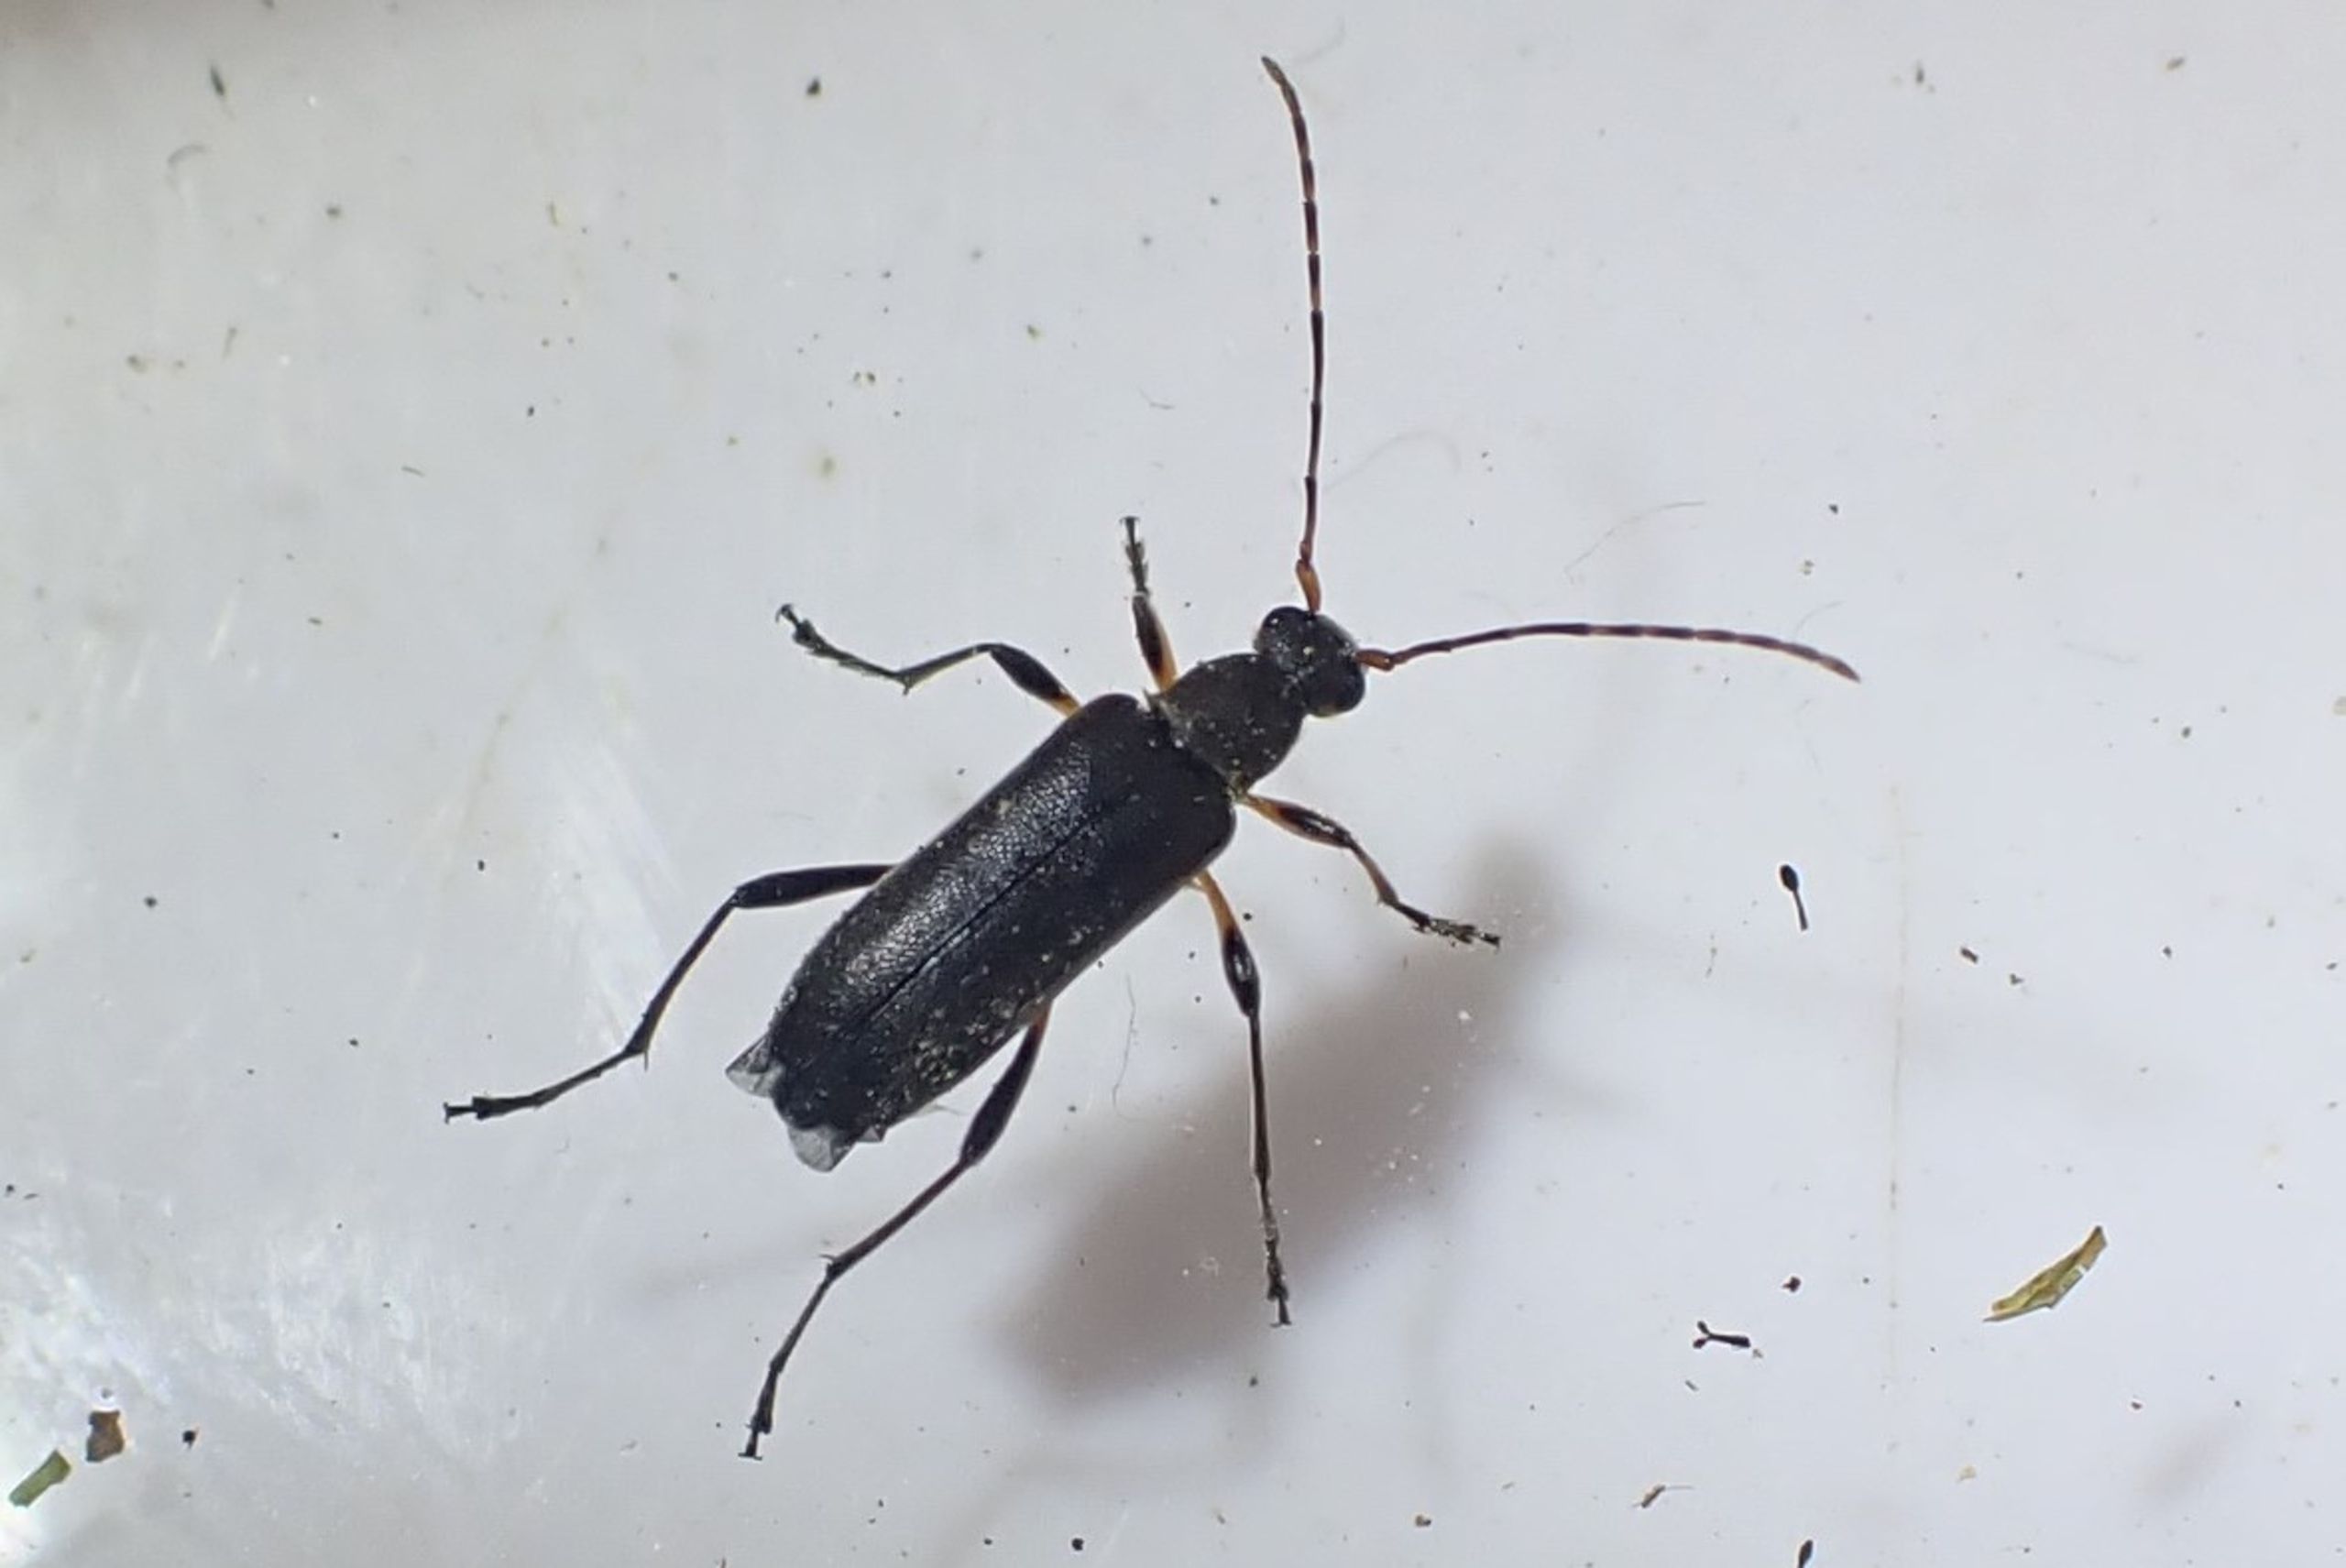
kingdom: Animalia
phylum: Arthropoda
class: Insecta
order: Coleoptera
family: Cerambycidae
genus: Grammoptera
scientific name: Grammoptera ruficornis
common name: Lille blomsterbuk
